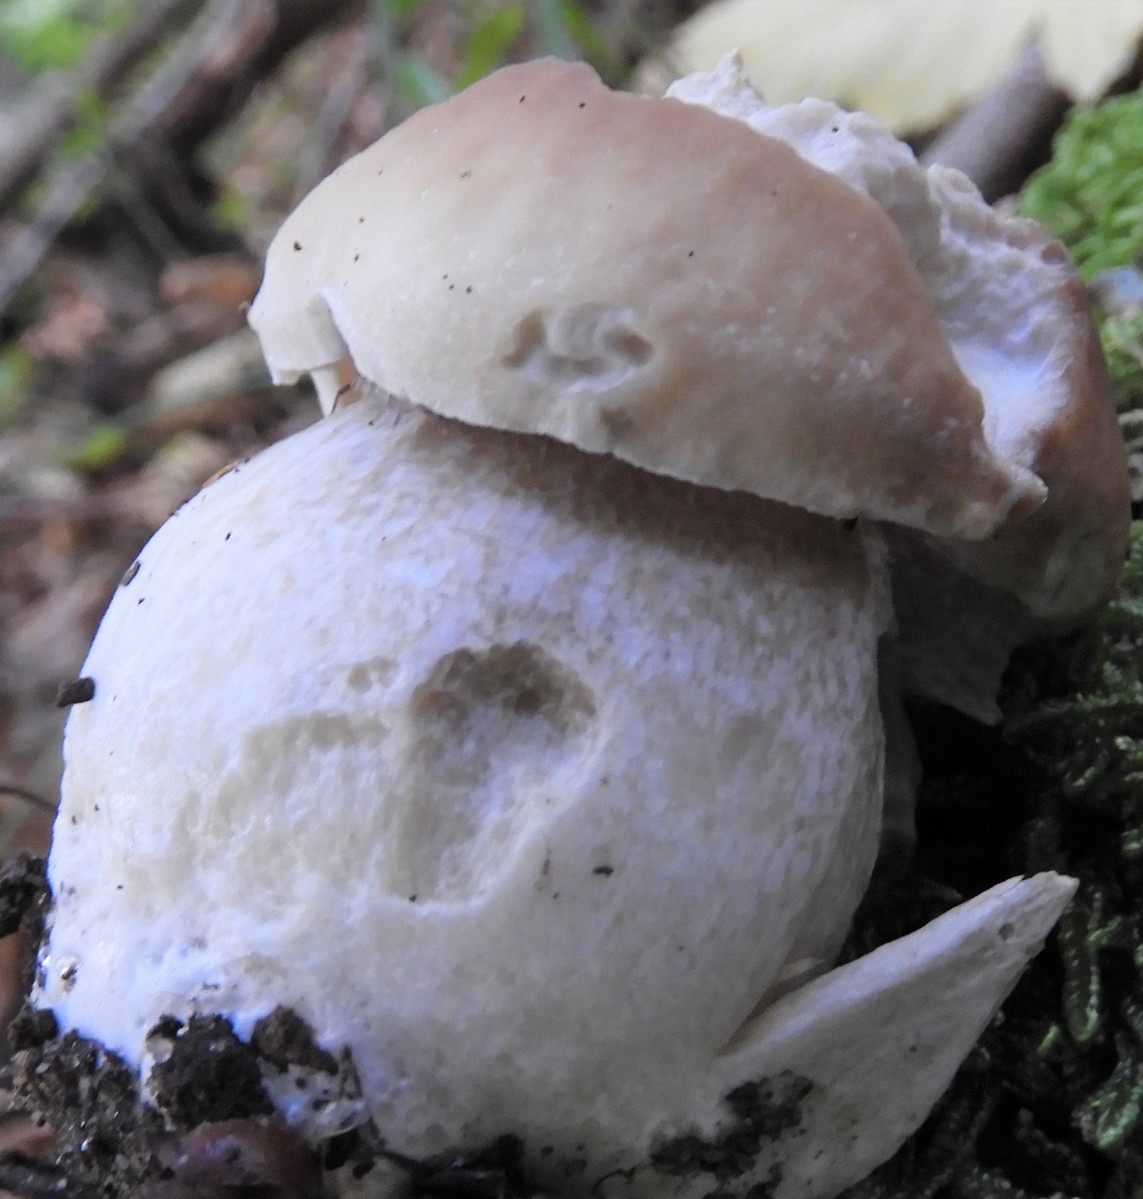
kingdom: Fungi
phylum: Basidiomycota
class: Agaricomycetes
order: Boletales
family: Boletaceae
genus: Boletus
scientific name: Boletus edulis
